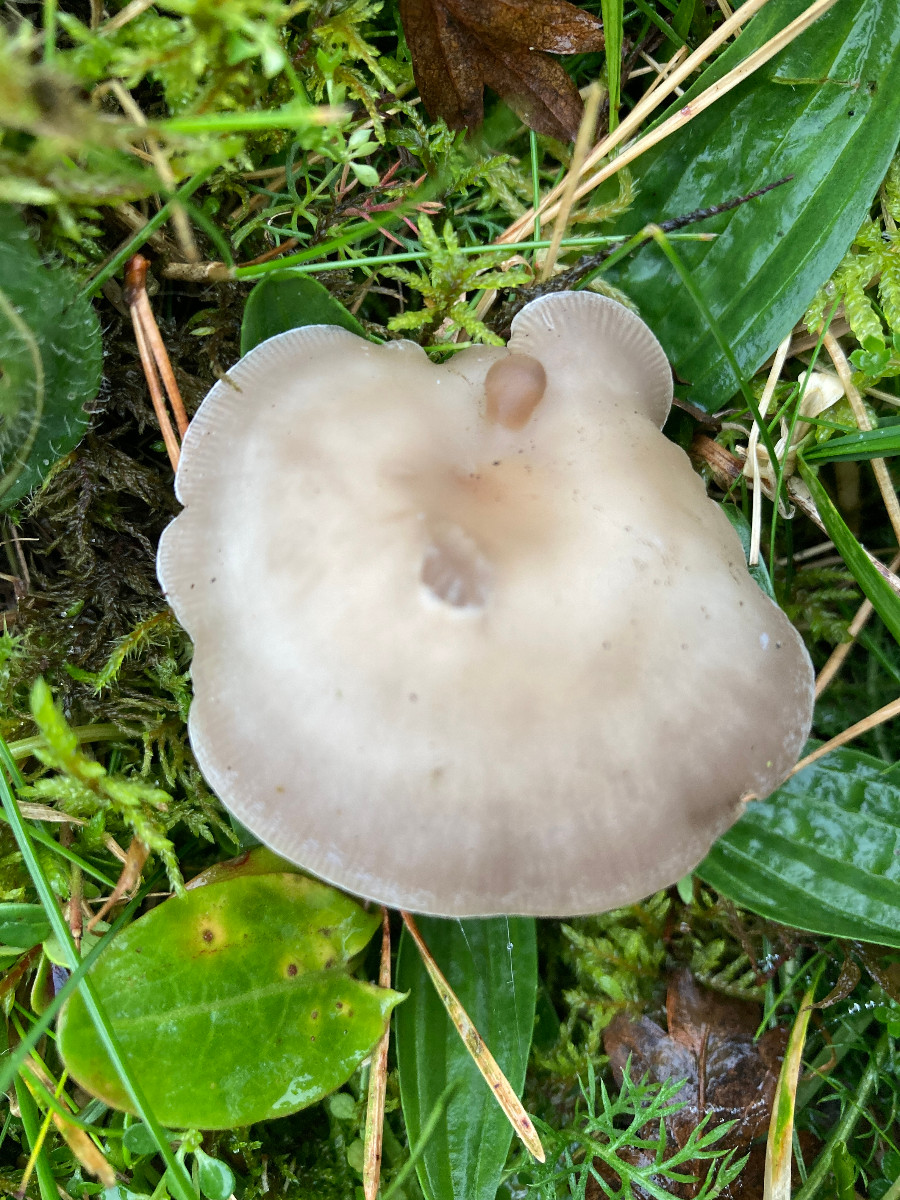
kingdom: Fungi
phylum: Basidiomycota
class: Agaricomycetes
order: Agaricales
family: Tricholomataceae
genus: Clitocybe
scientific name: Clitocybe
